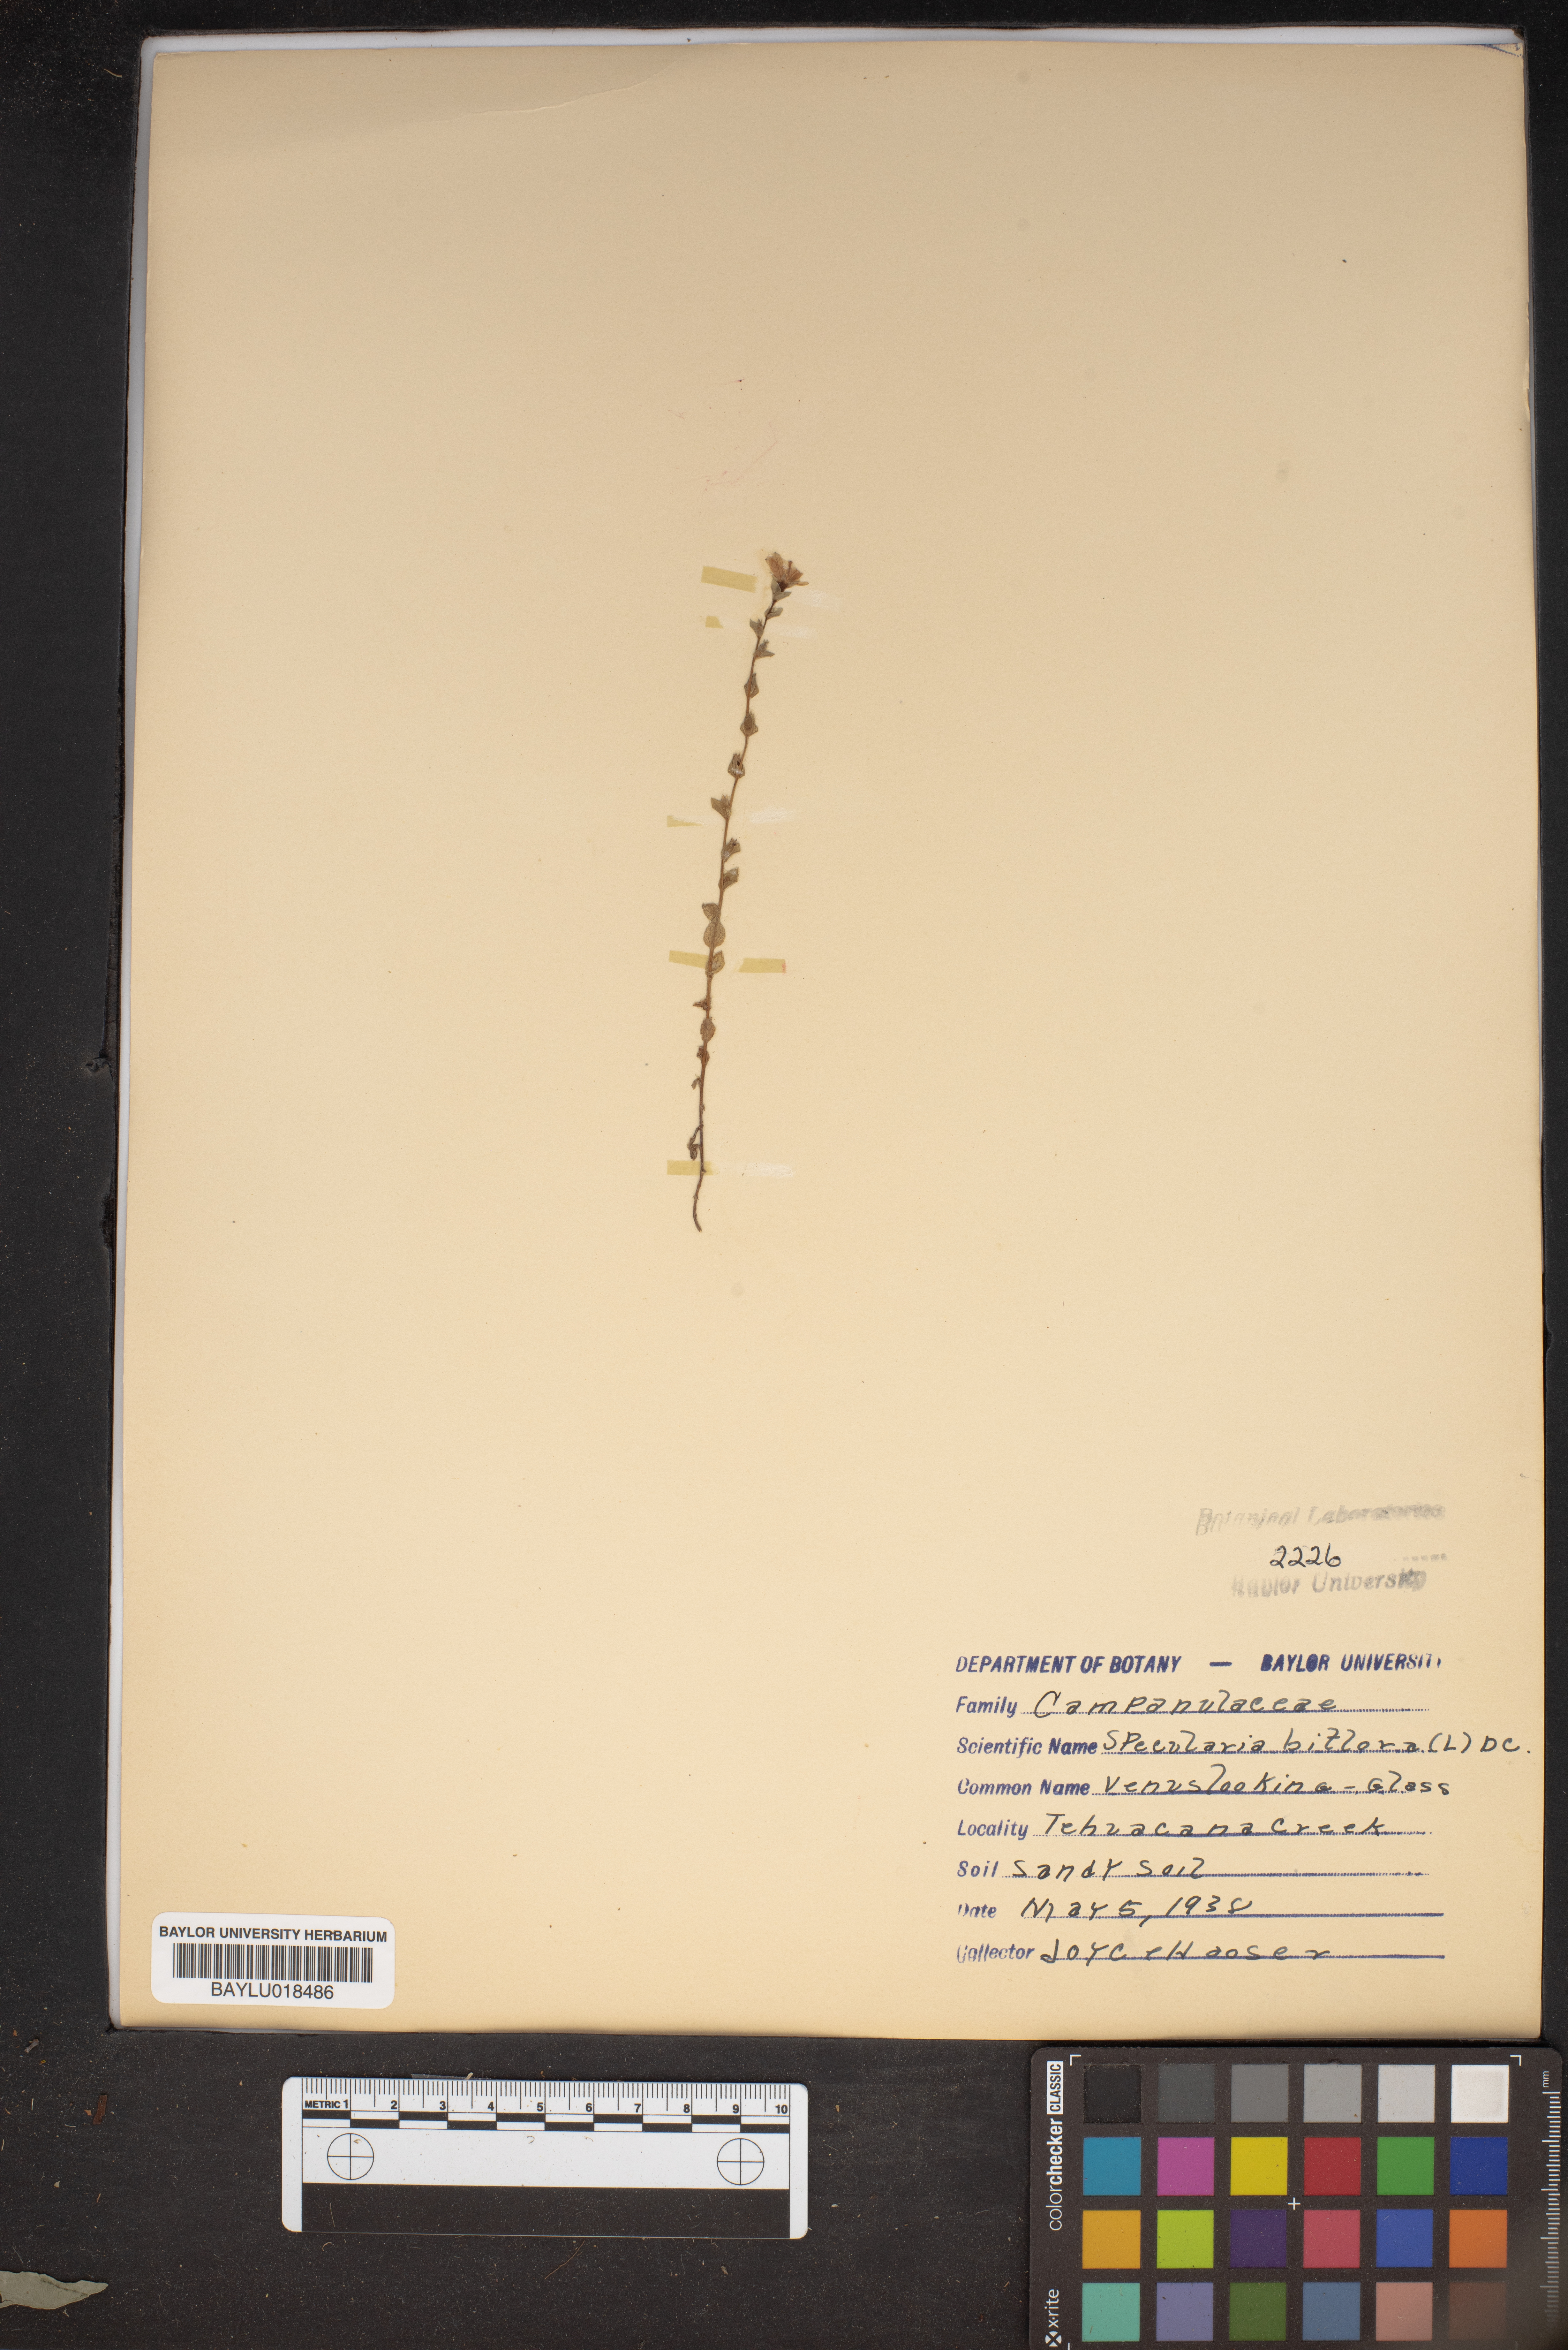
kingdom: Plantae
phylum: Tracheophyta
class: Magnoliopsida
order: Asterales
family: Campanulaceae
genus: Triodanis
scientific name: Triodanis perfoliata
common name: Clasping venus' looking-glass
